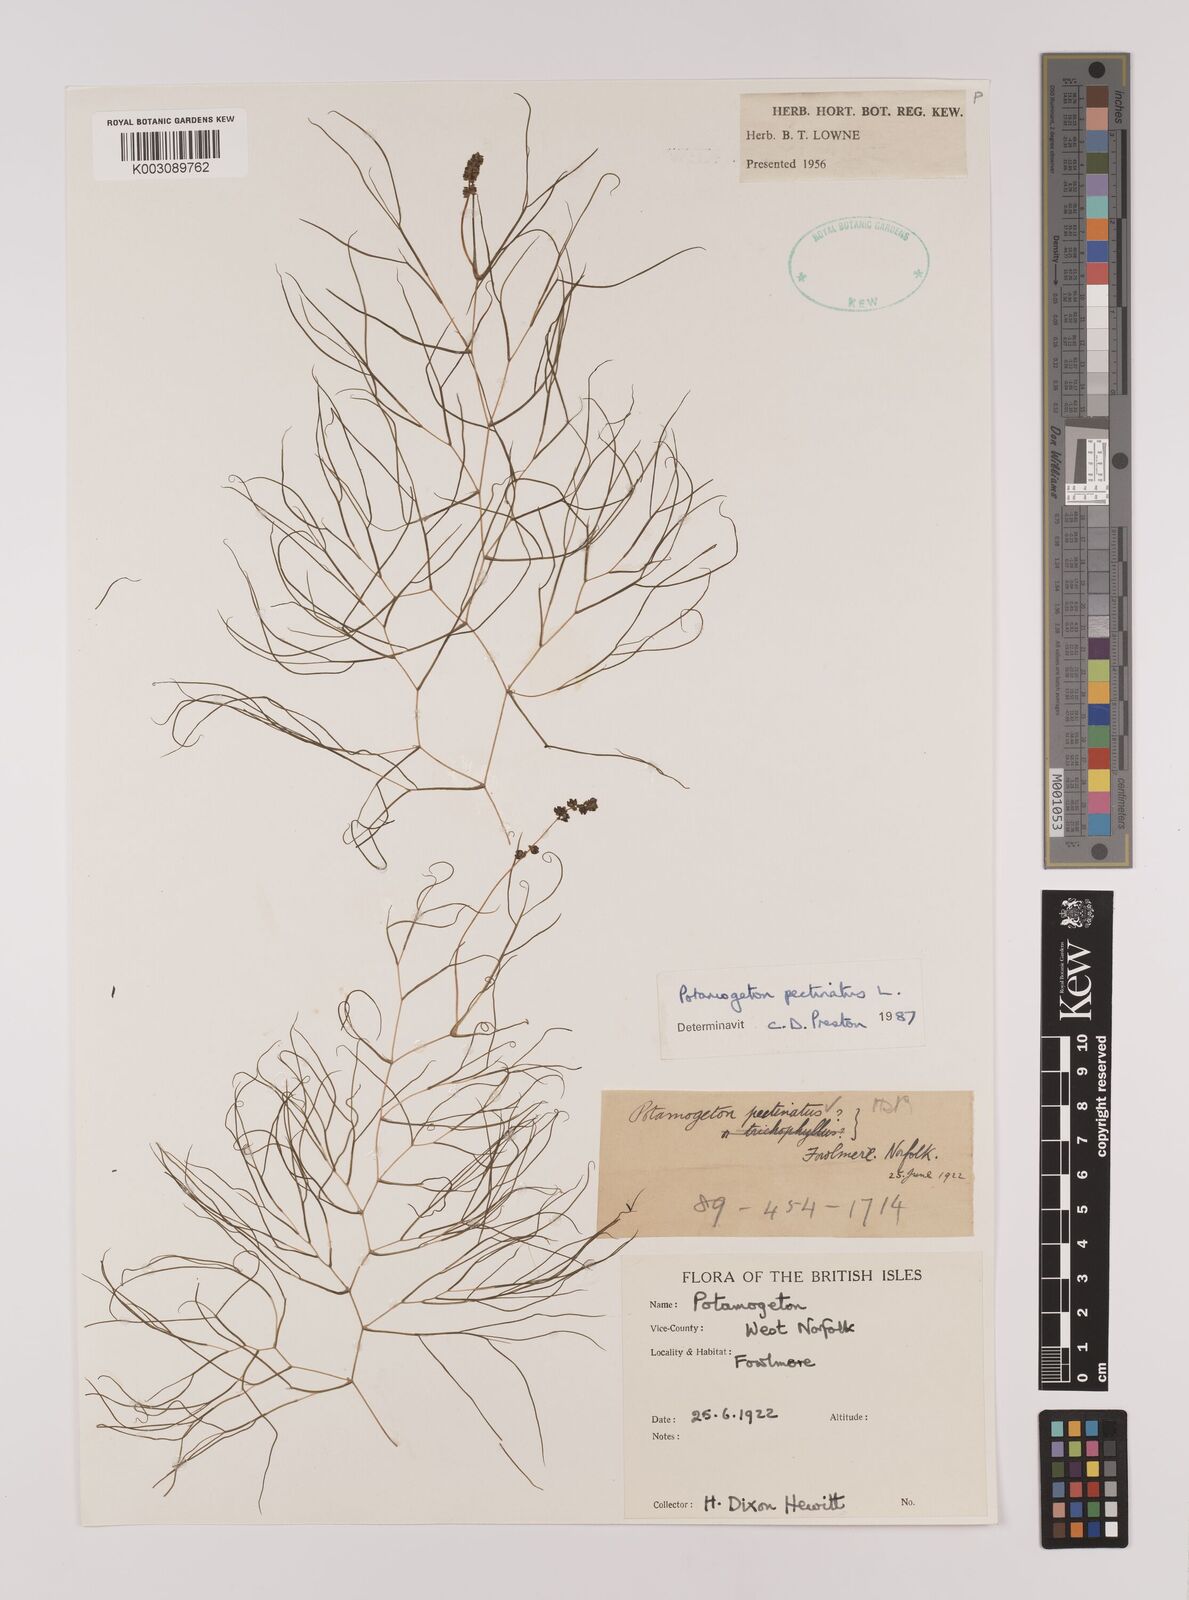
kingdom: Plantae
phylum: Tracheophyta
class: Liliopsida
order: Alismatales
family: Potamogetonaceae
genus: Stuckenia
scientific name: Stuckenia pectinata
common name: Sago pondweed
